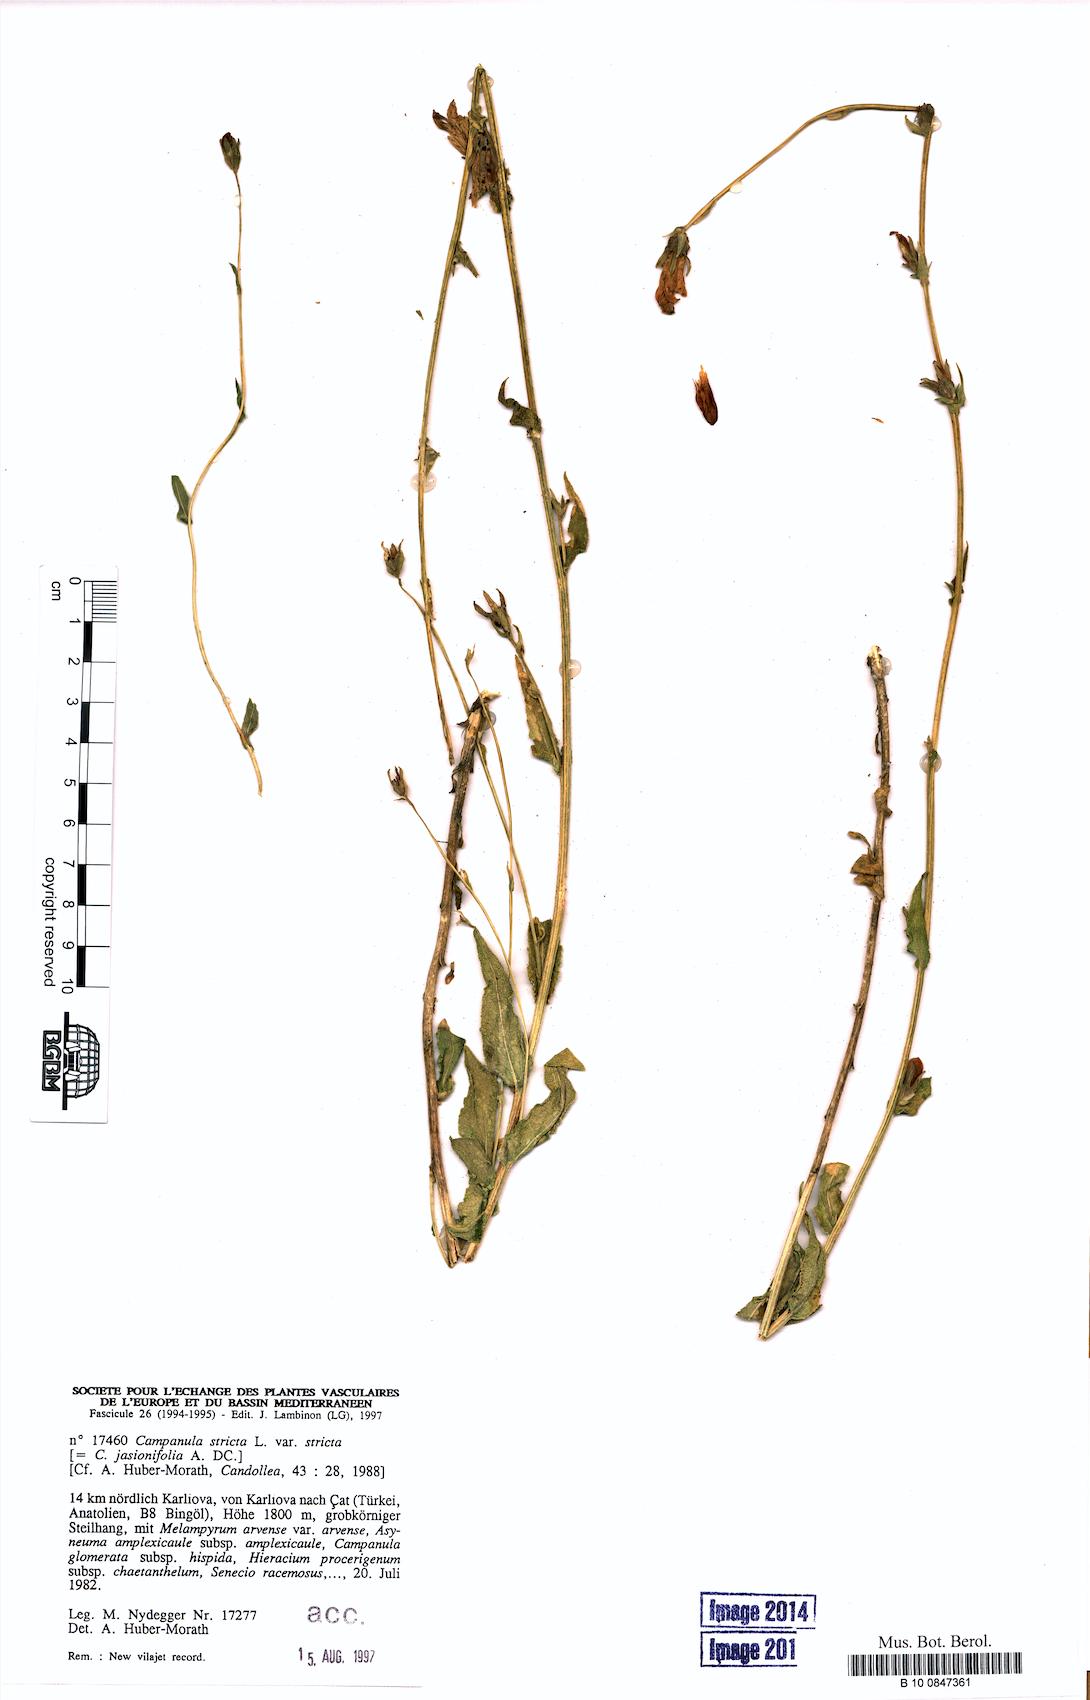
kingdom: Plantae
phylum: Tracheophyta
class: Magnoliopsida
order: Asterales
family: Campanulaceae
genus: Campanula
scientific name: Campanula stricta
